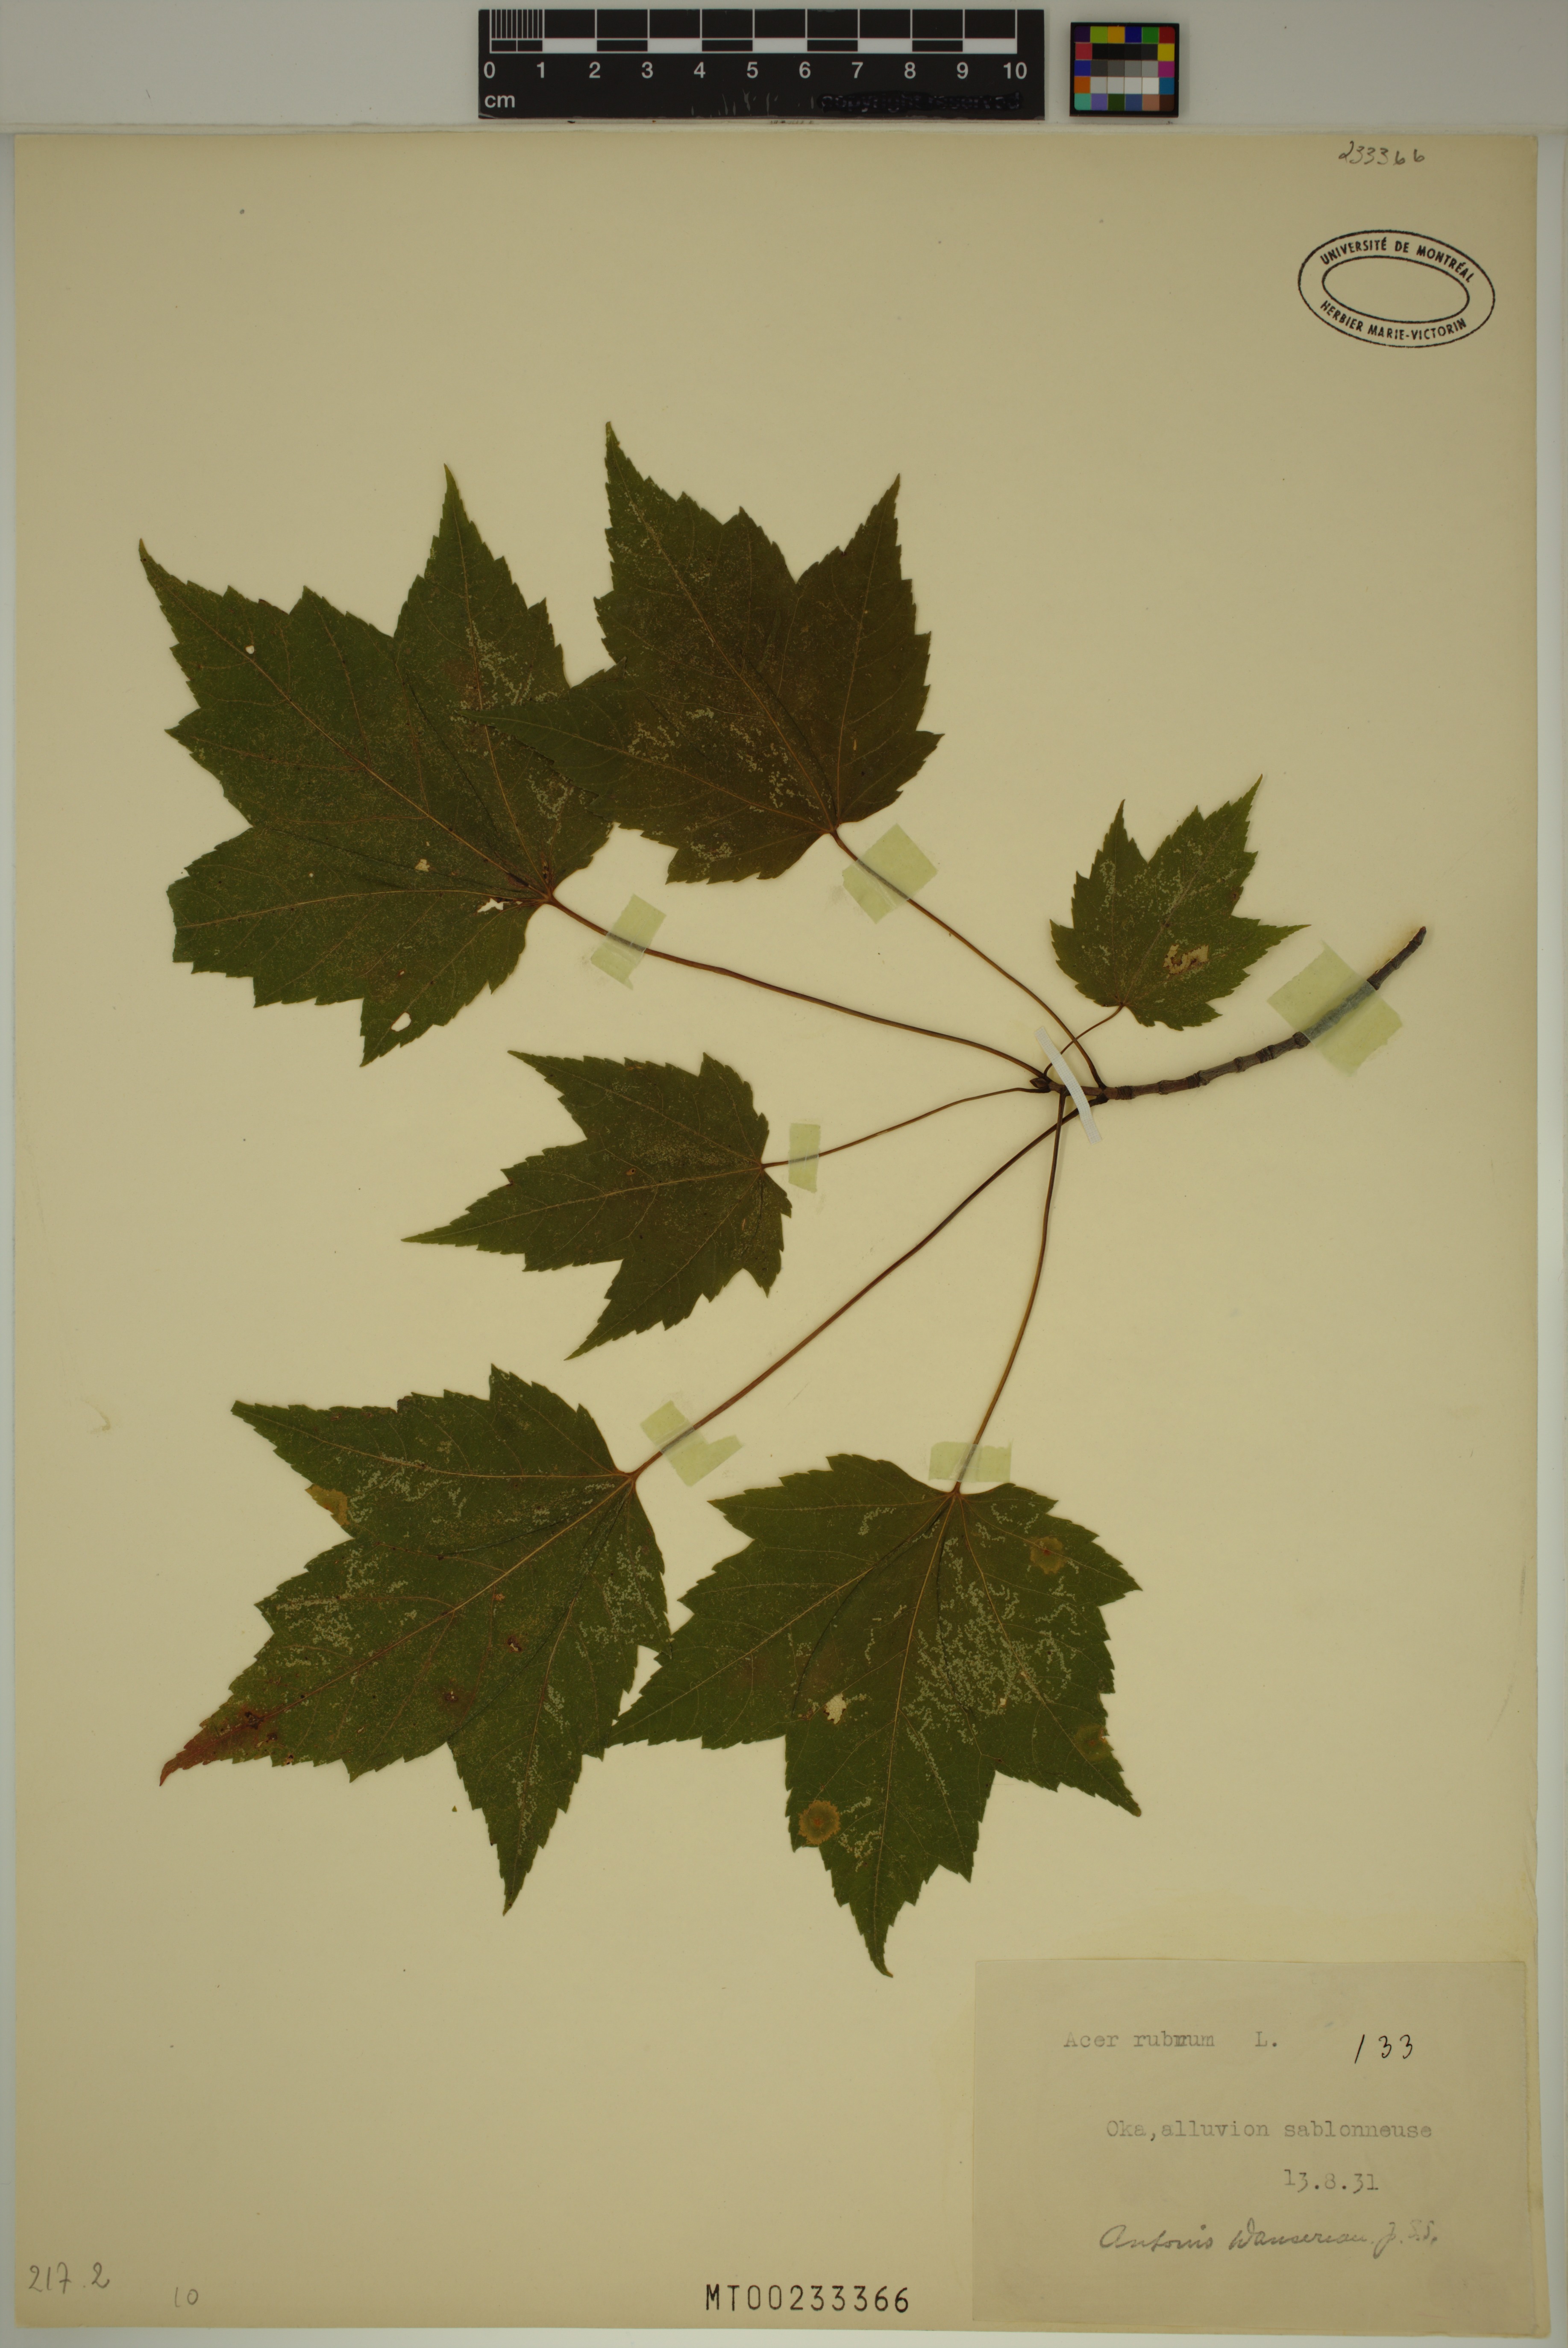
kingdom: Plantae
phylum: Tracheophyta
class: Magnoliopsida
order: Sapindales
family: Sapindaceae
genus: Acer
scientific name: Acer rubrum
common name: Red maple
